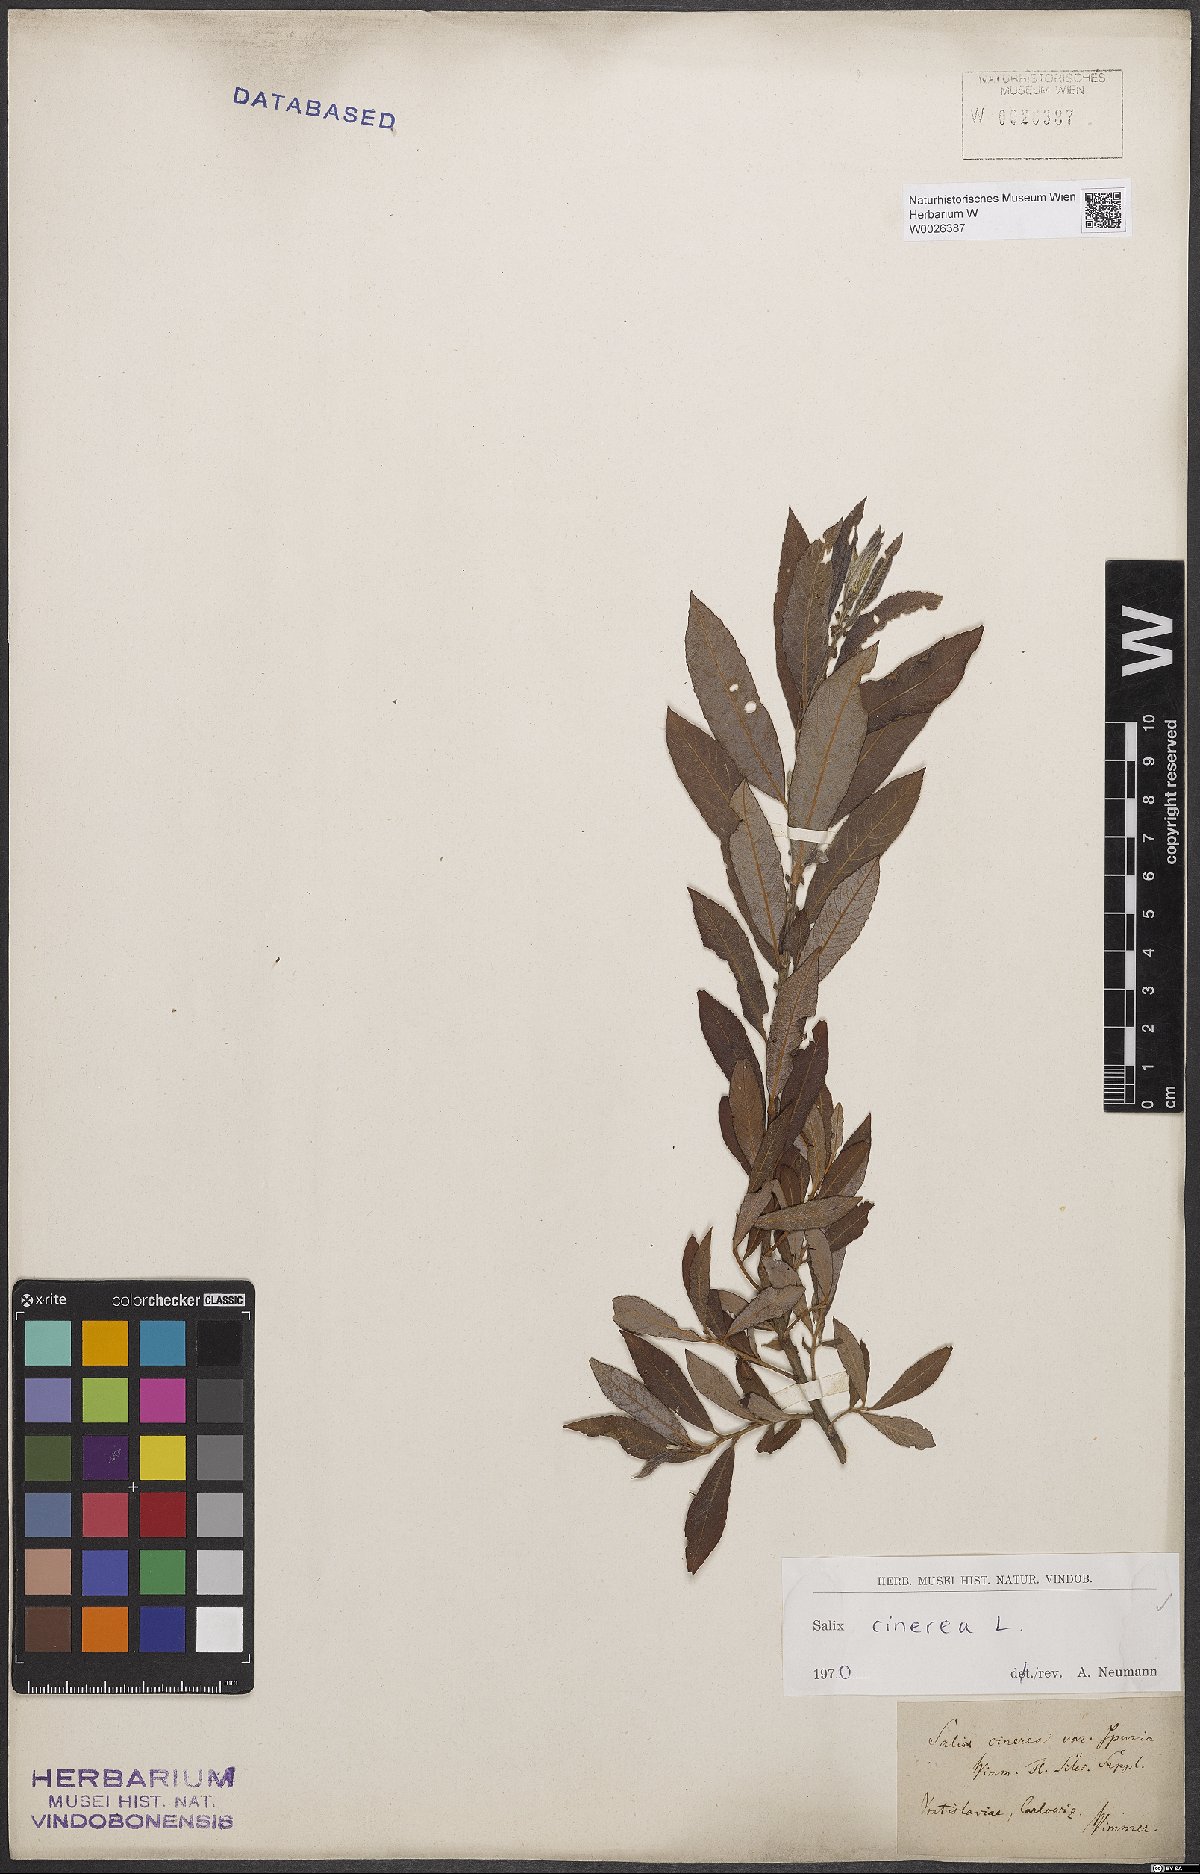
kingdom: Plantae
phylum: Tracheophyta
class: Magnoliopsida
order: Malpighiales
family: Salicaceae
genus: Salix
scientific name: Salix cinerea
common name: Common sallow
